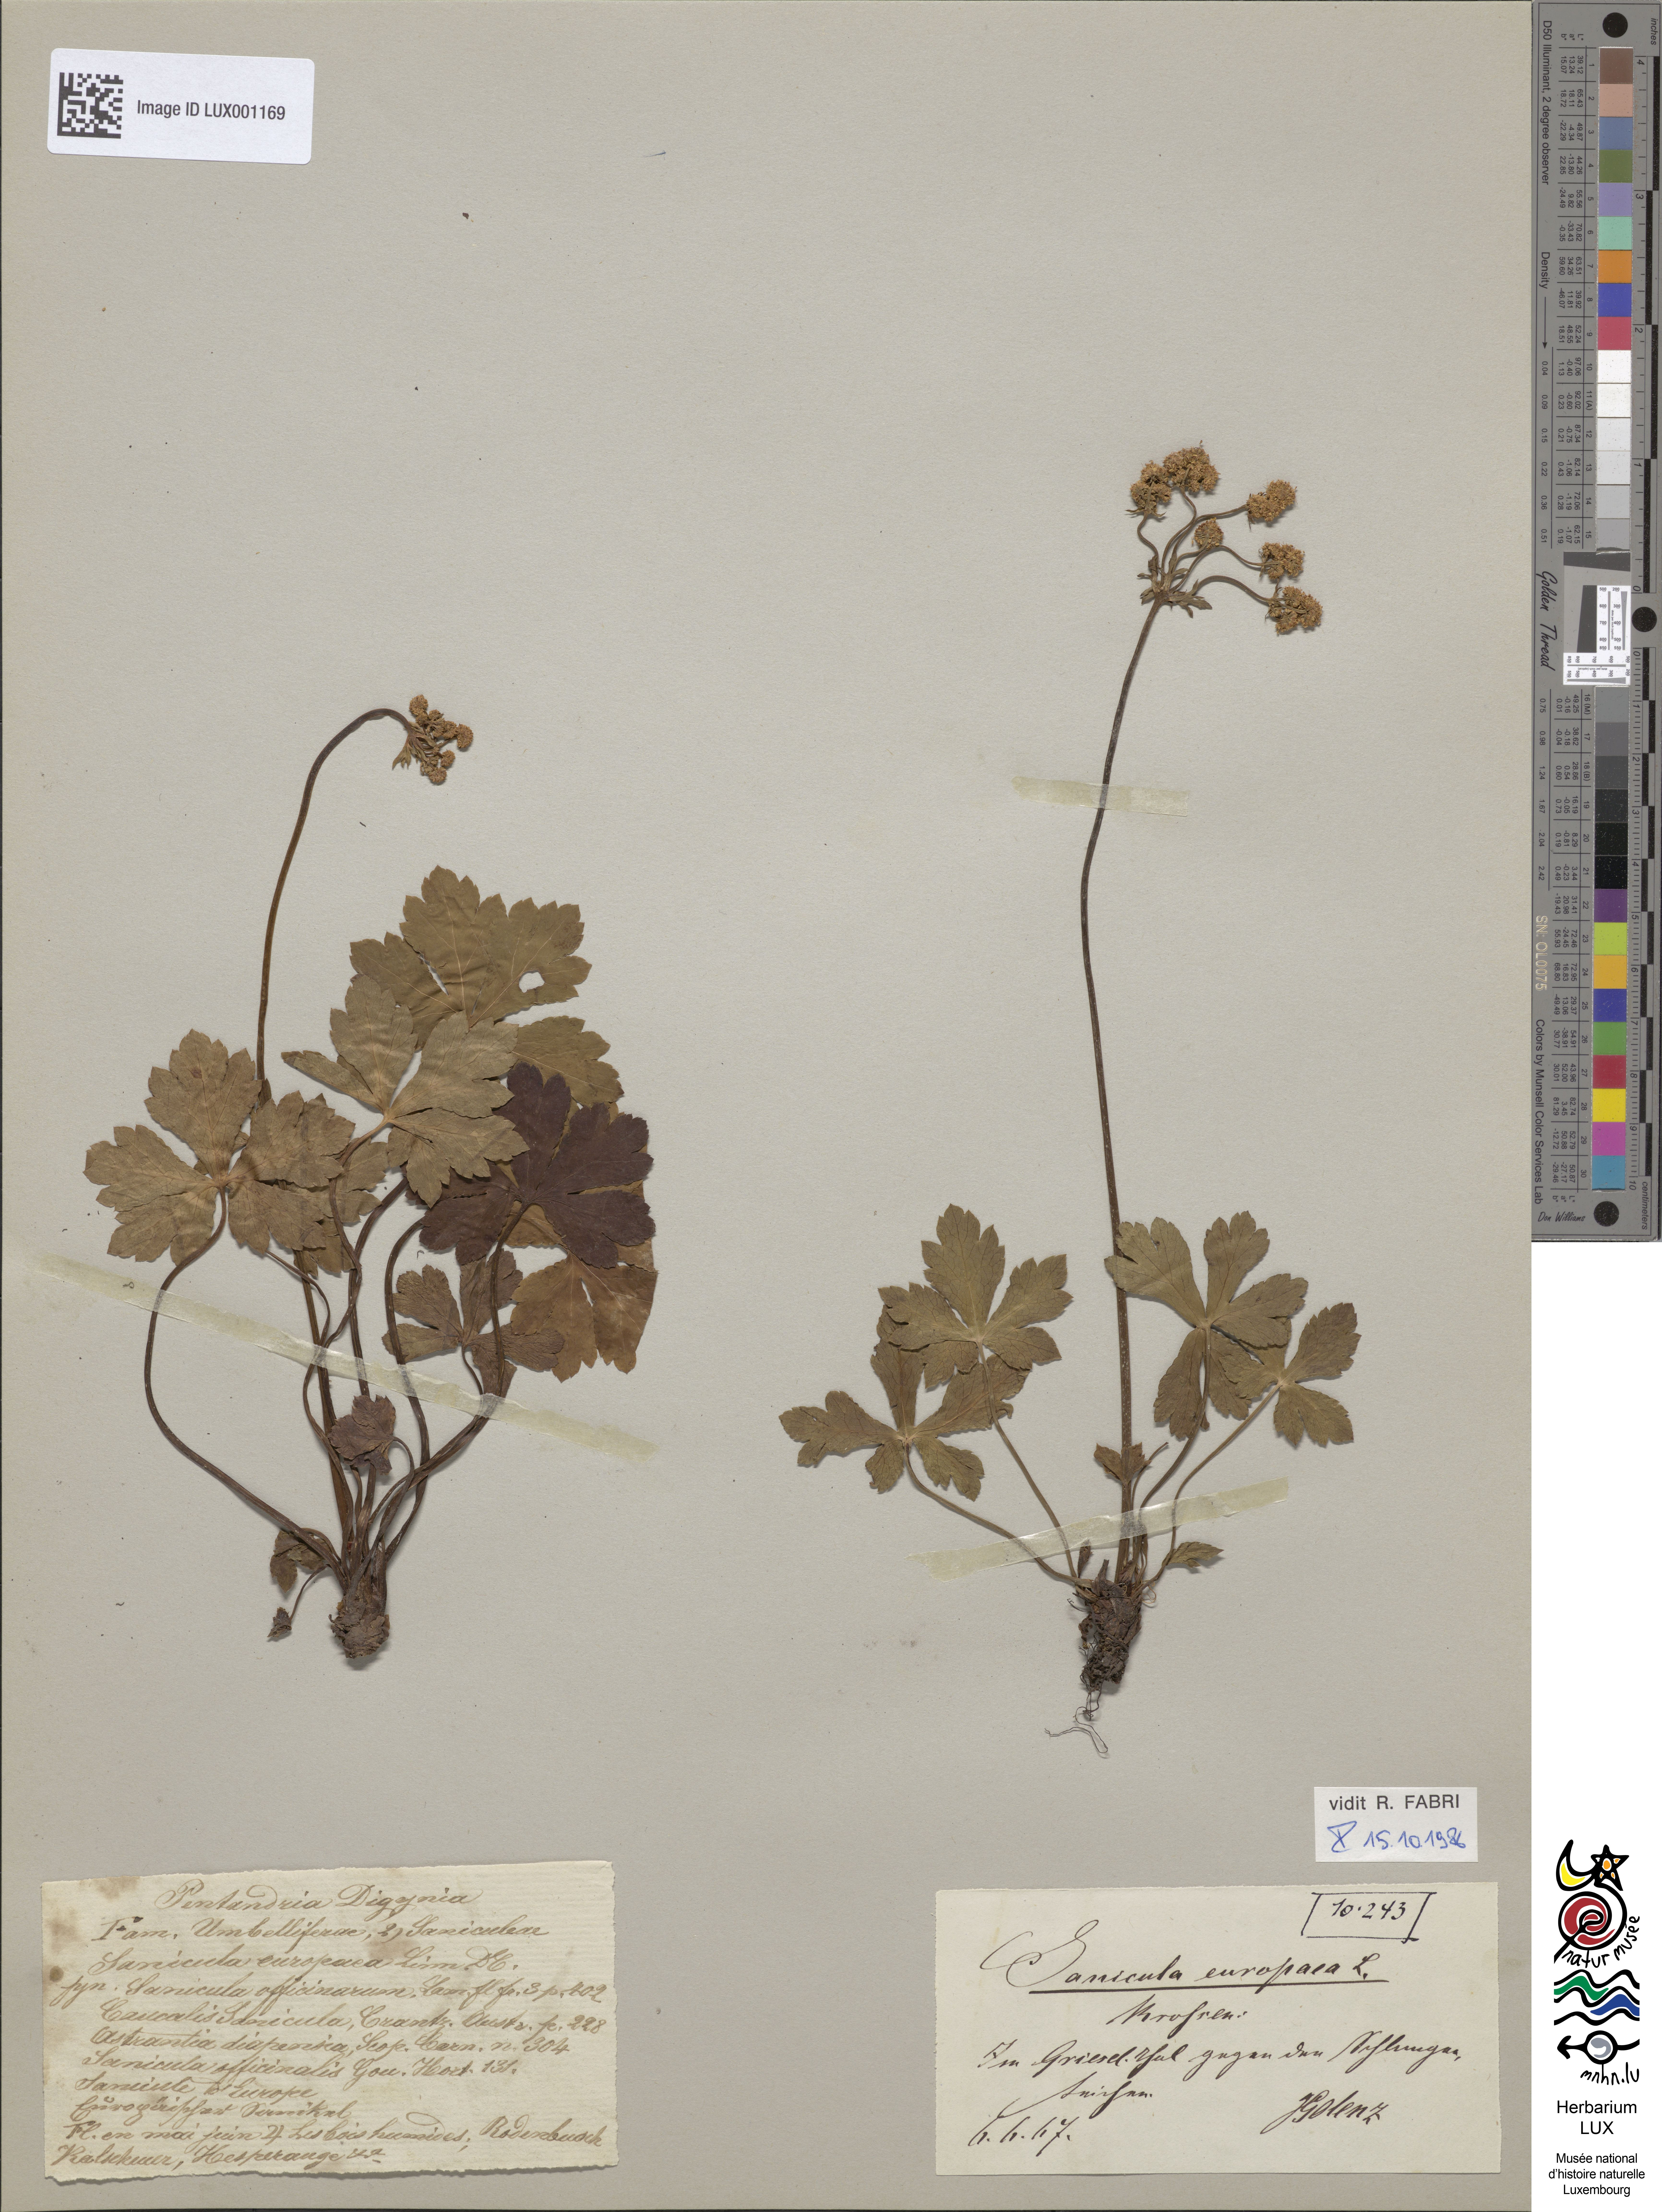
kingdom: Plantae
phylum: Tracheophyta
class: Magnoliopsida
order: Apiales
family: Apiaceae
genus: Sanicula
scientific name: Sanicula europaea
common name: Sanicle
